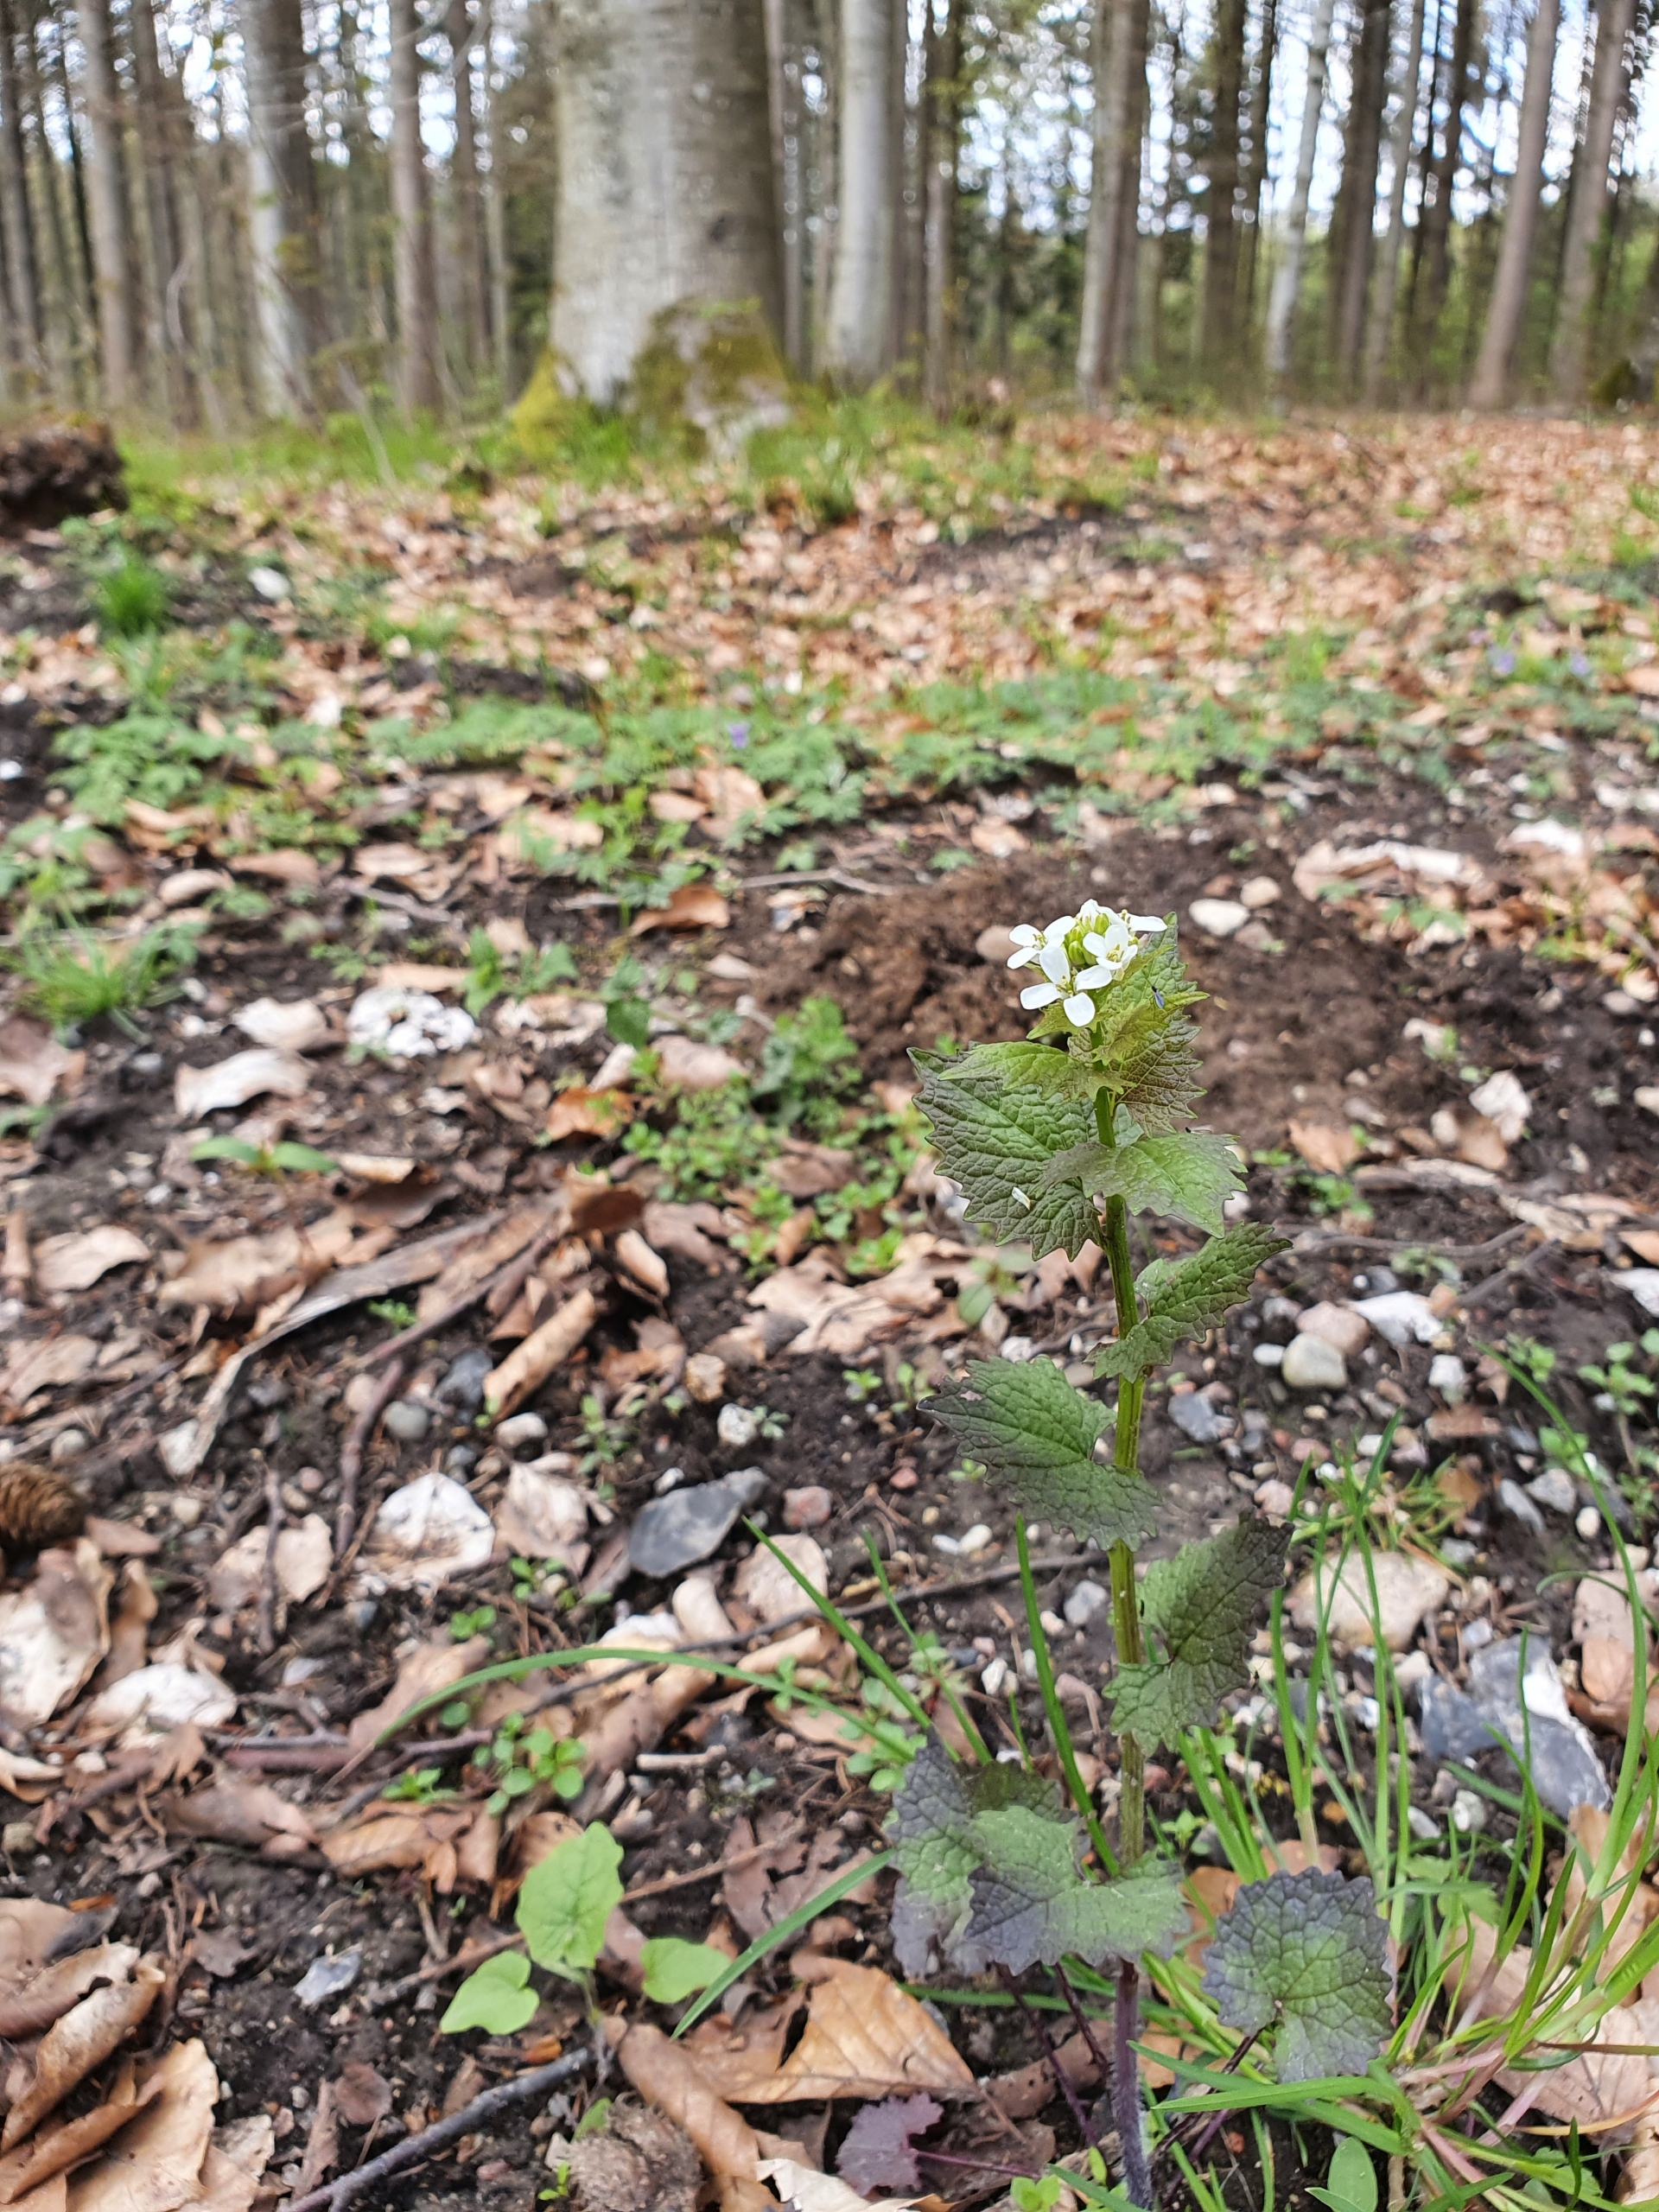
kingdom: Plantae
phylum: Tracheophyta
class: Magnoliopsida
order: Brassicales
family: Brassicaceae
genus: Alliaria
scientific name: Alliaria petiolata
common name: Løgkarse
